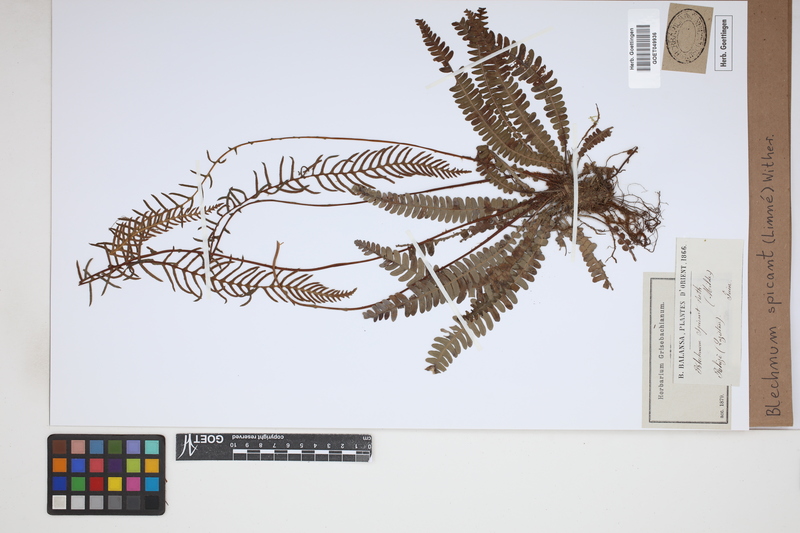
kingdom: Plantae
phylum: Tracheophyta
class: Polypodiopsida
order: Polypodiales
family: Blechnaceae
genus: Struthiopteris
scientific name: Struthiopteris spicant
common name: Deer fern
